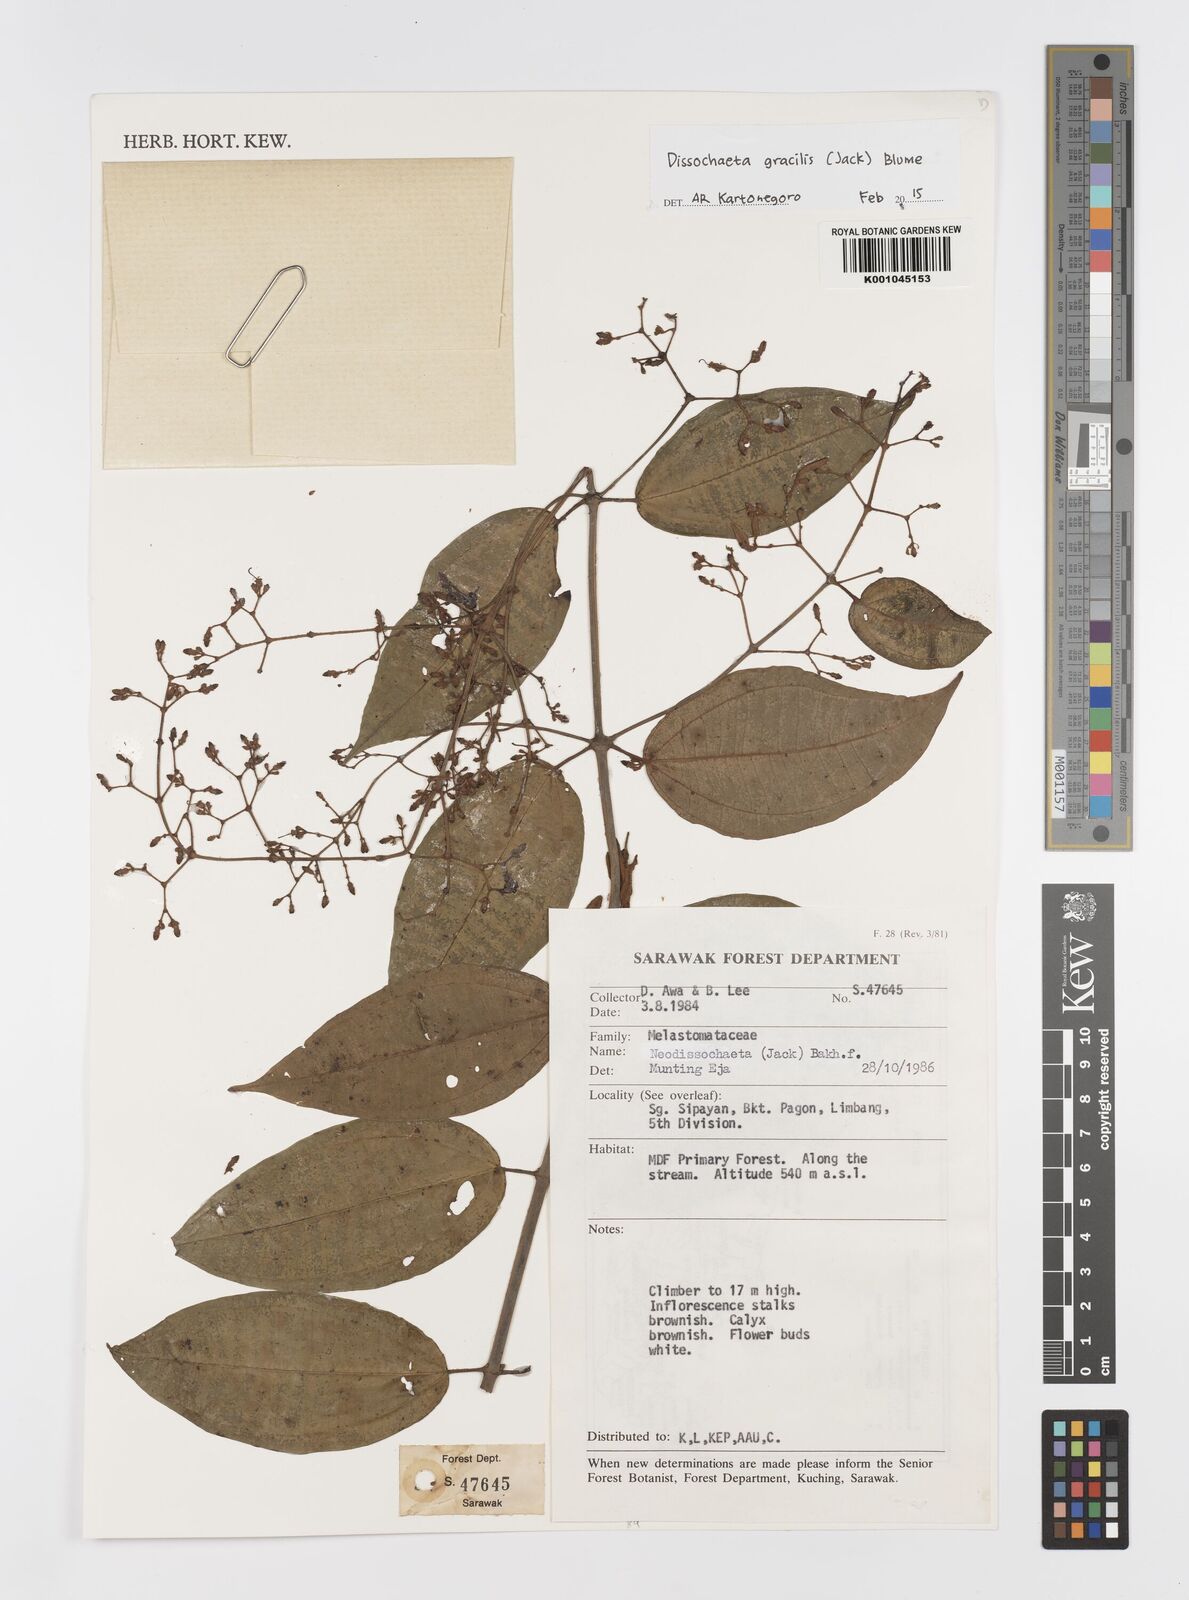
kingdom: Plantae
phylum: Tracheophyta
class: Magnoliopsida
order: Myrtales
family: Melastomataceae
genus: Dissochaeta
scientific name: Dissochaeta gracilis
